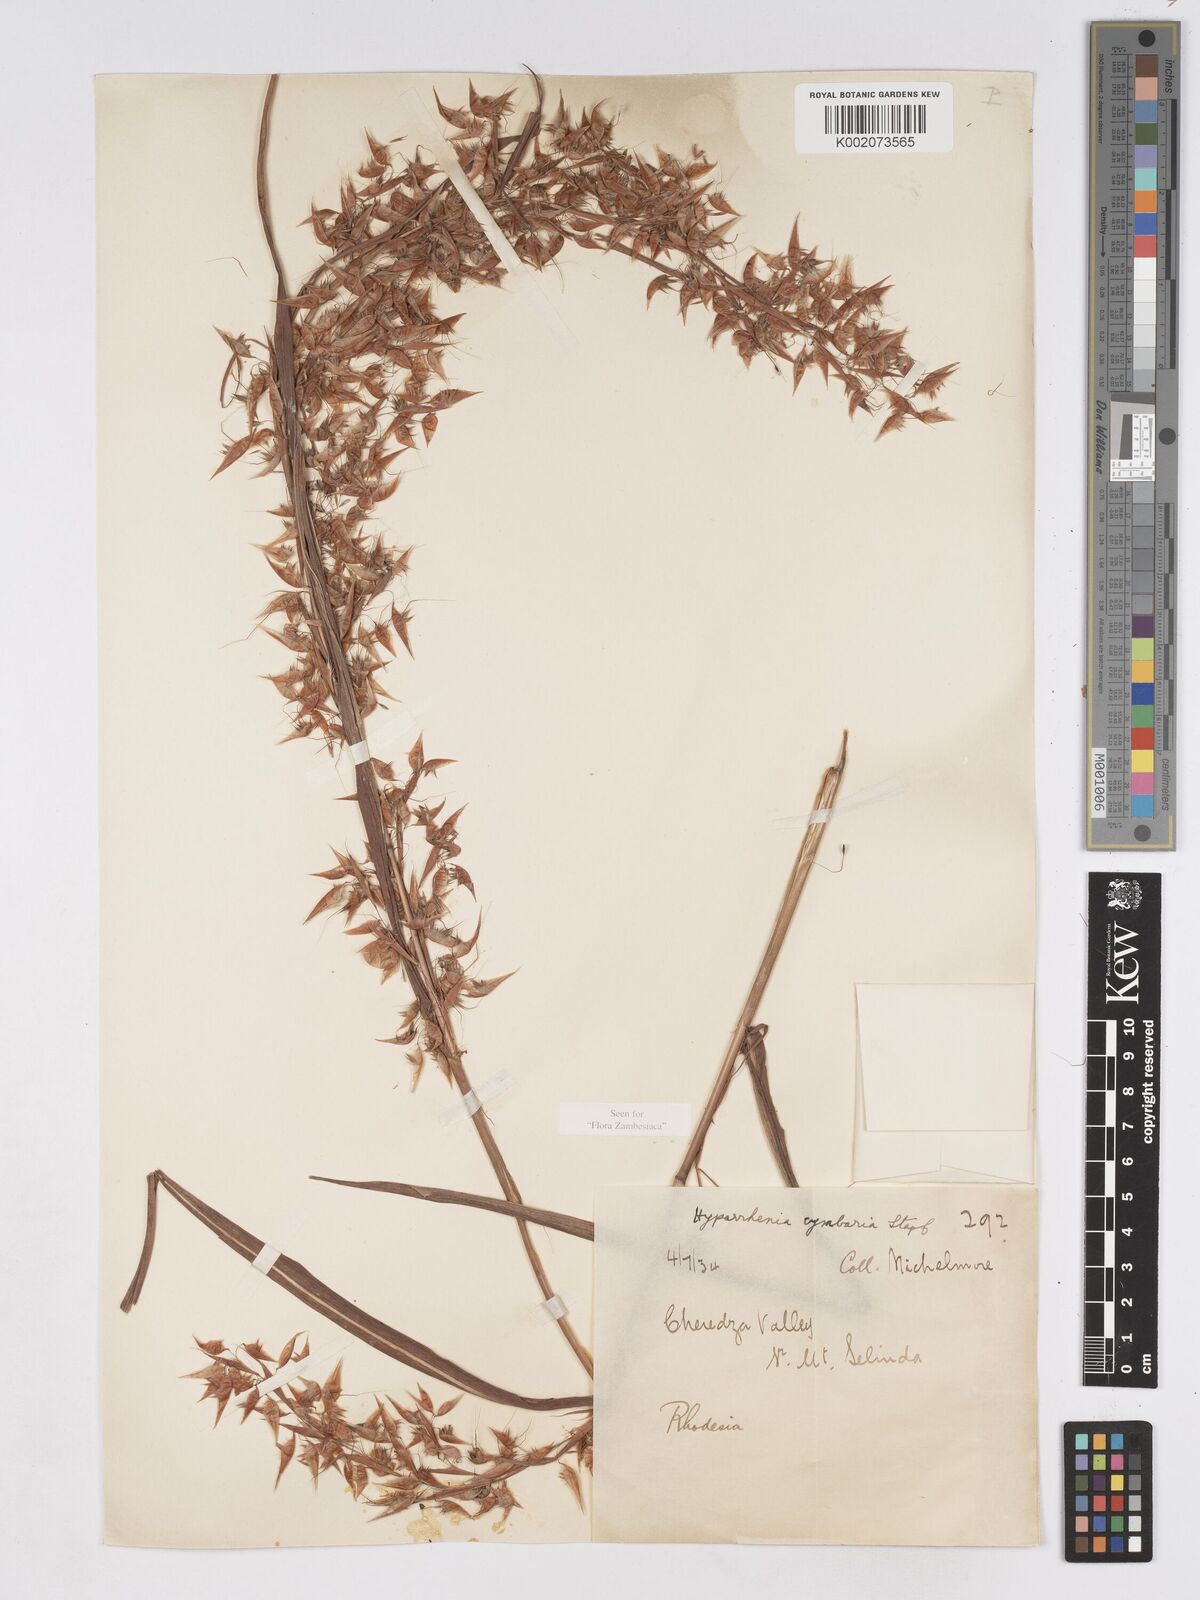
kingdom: Plantae
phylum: Tracheophyta
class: Liliopsida
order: Poales
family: Poaceae
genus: Hyparrhenia
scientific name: Hyparrhenia cymbaria
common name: Boat thatching grass
